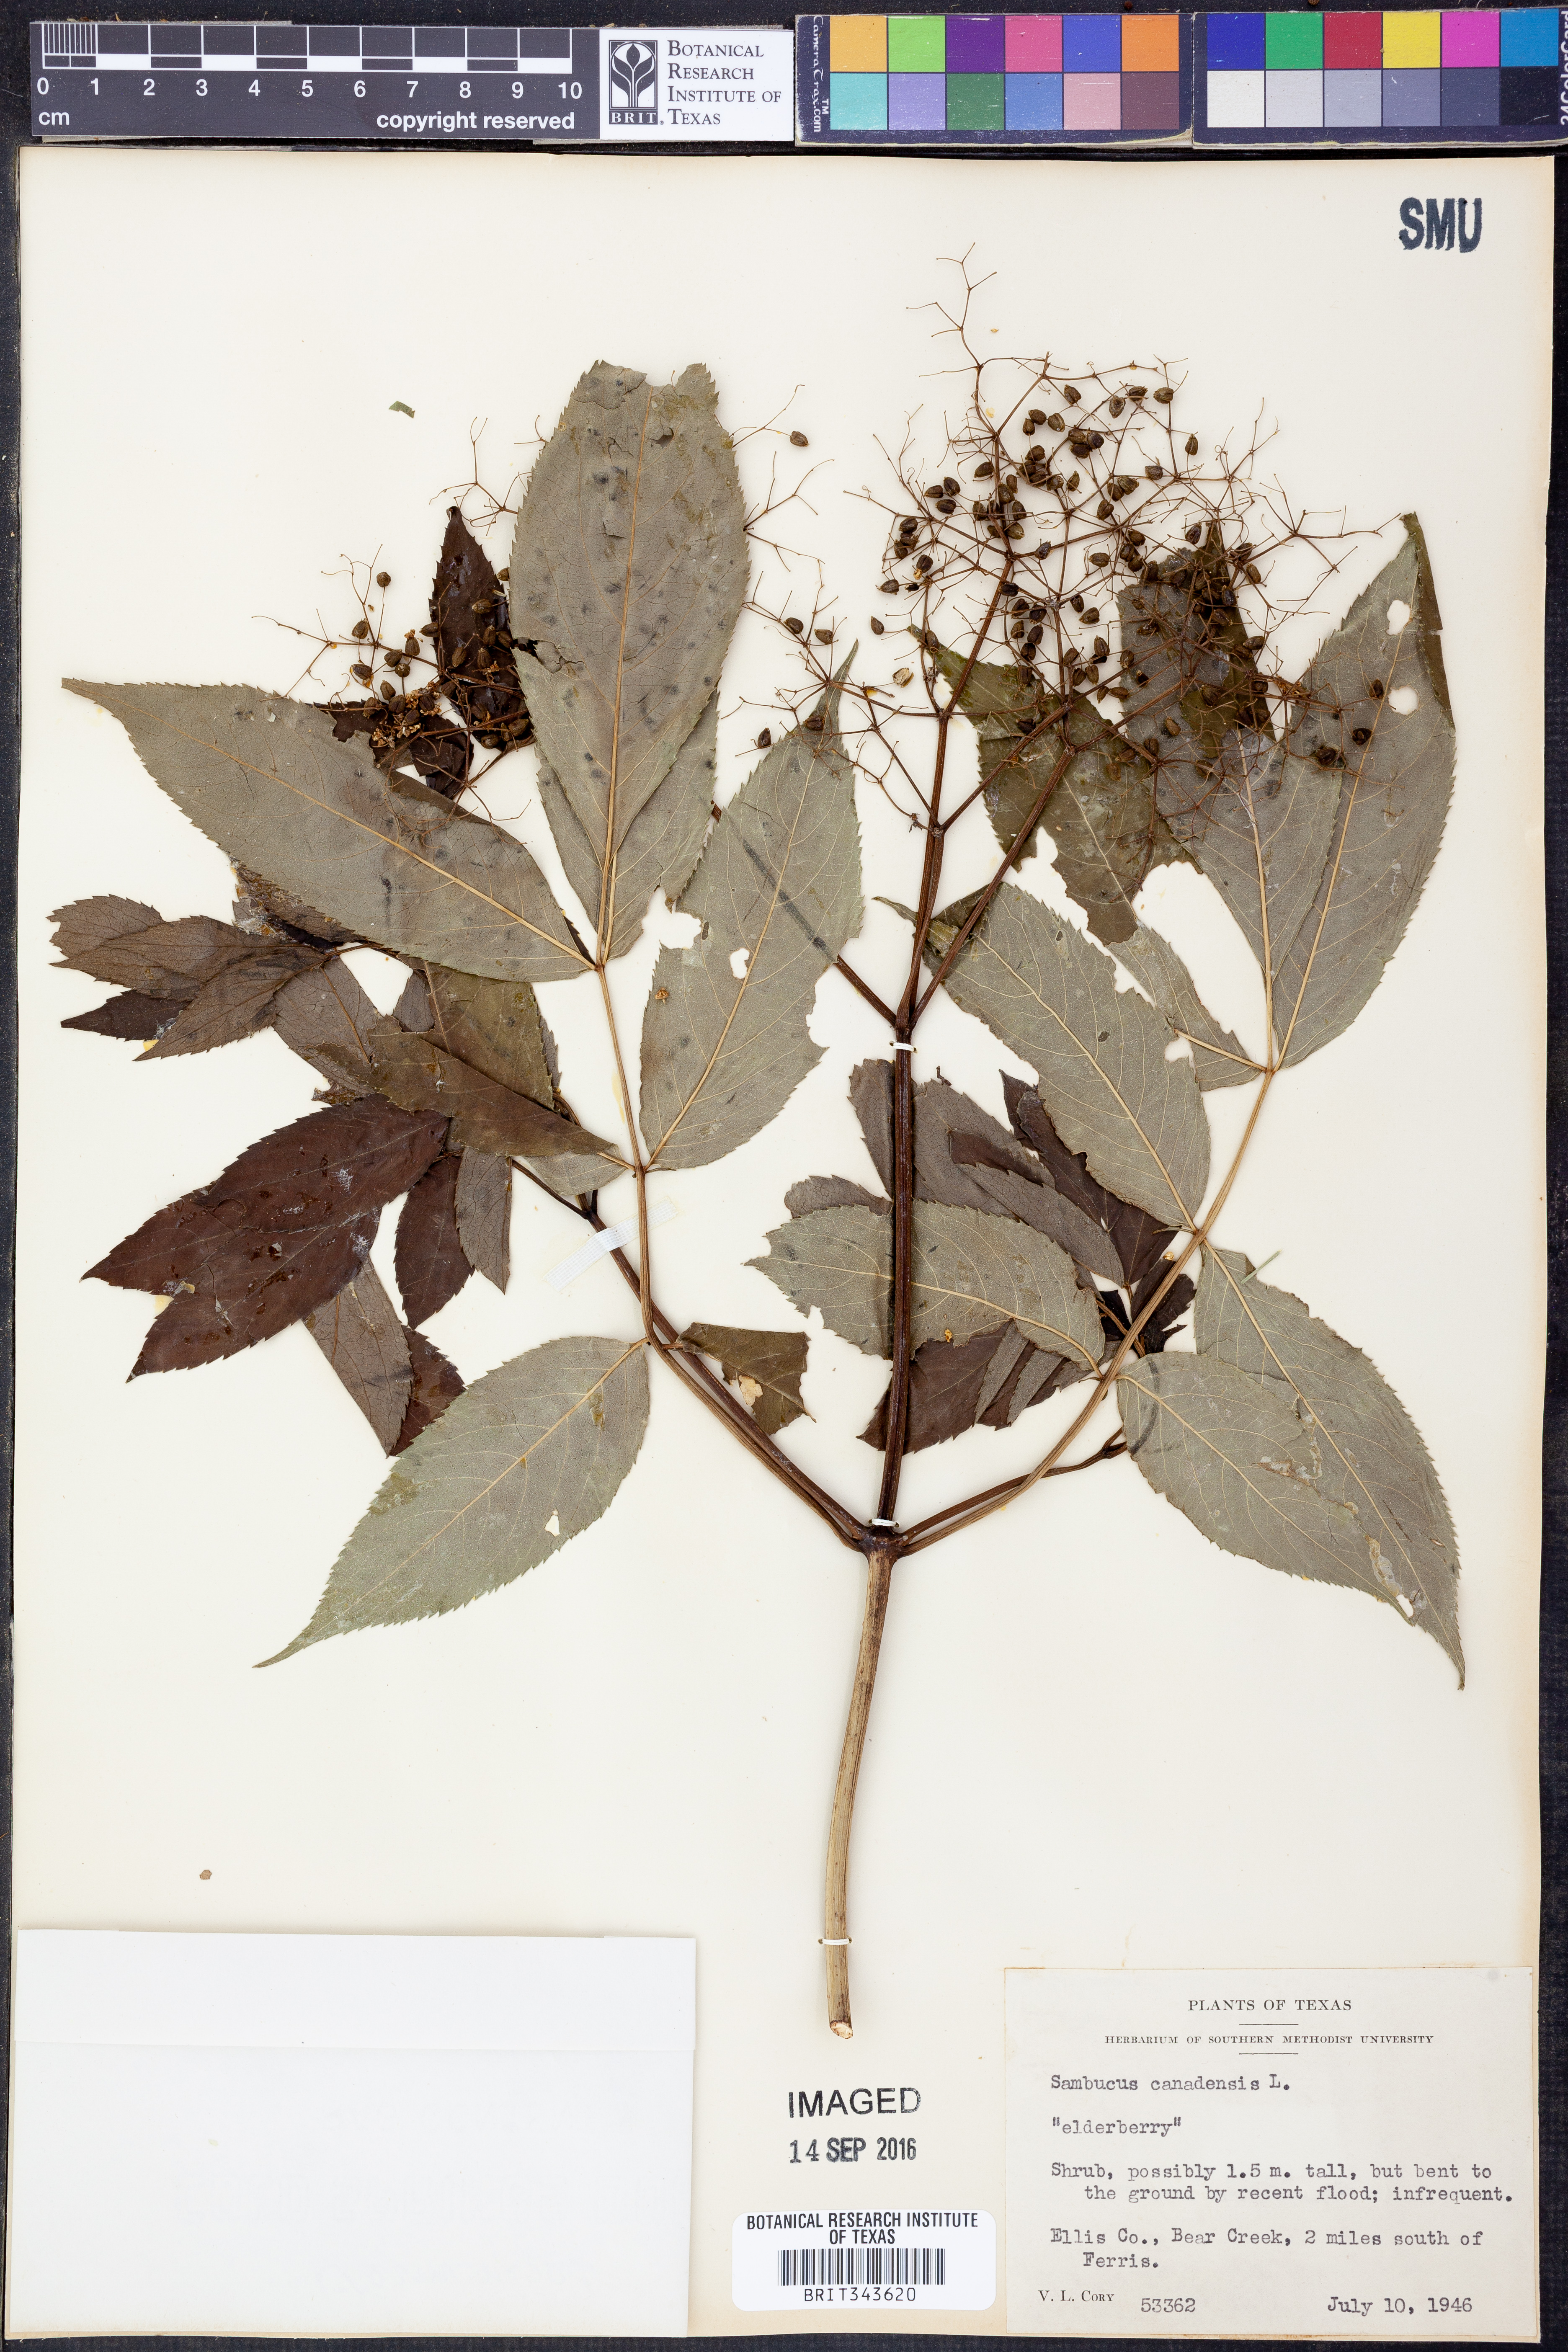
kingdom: Plantae
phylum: Tracheophyta
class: Magnoliopsida
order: Dipsacales
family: Viburnaceae
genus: Sambucus
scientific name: Sambucus canadensis
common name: American elder
